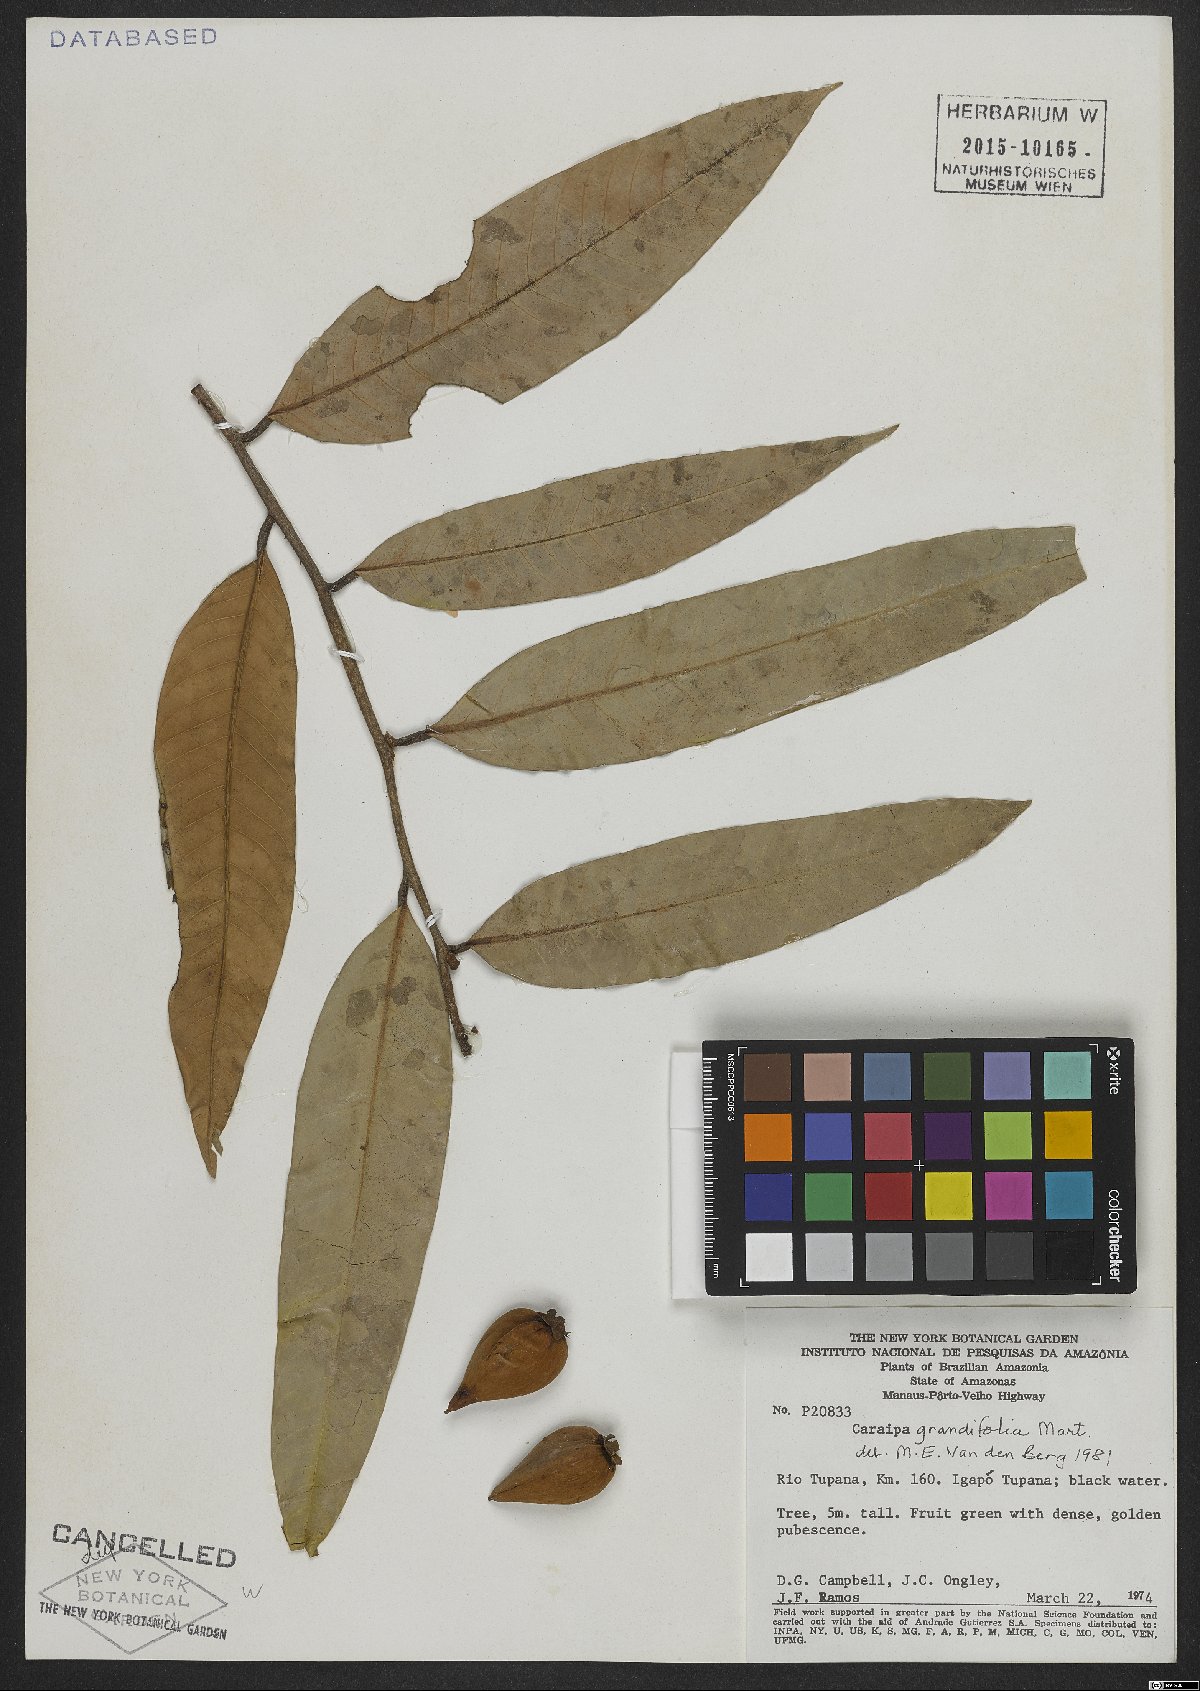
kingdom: Plantae
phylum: Tracheophyta
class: Magnoliopsida
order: Malpighiales
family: Calophyllaceae
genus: Caraipa
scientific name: Caraipa grandifolia
